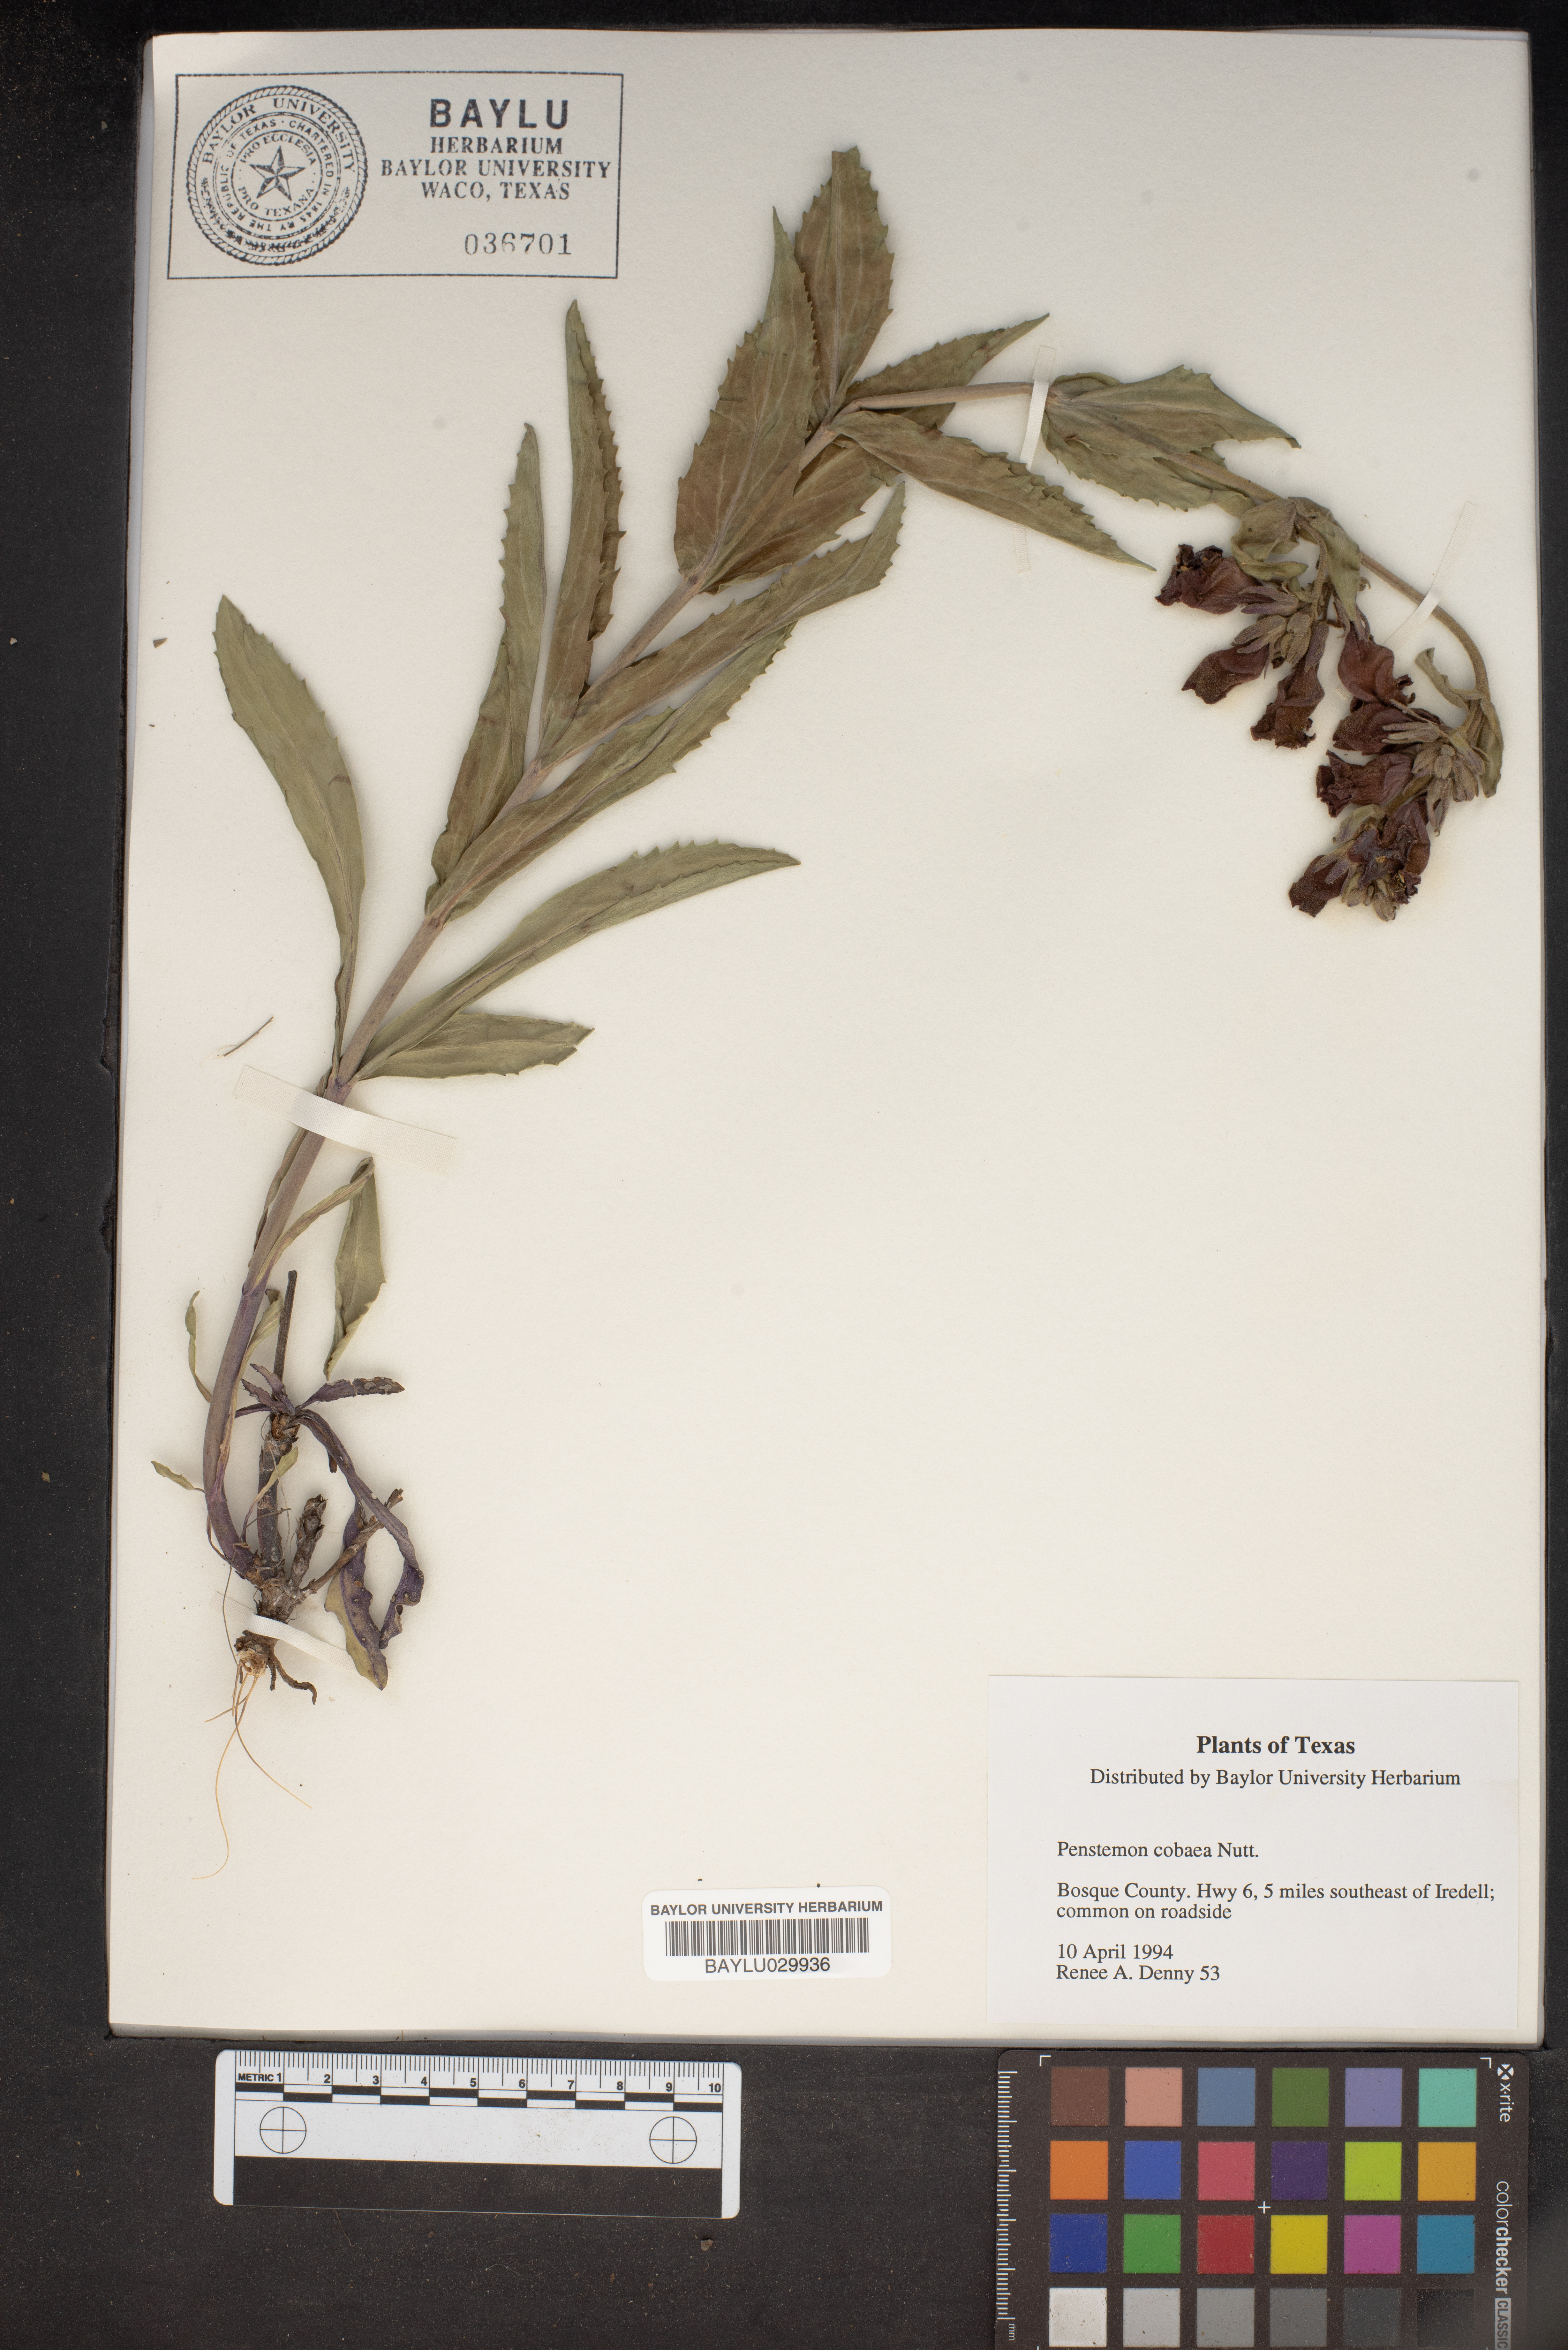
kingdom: Plantae
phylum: Tracheophyta
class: Magnoliopsida
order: Lamiales
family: Plantaginaceae
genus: Penstemon
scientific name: Penstemon cobaea
